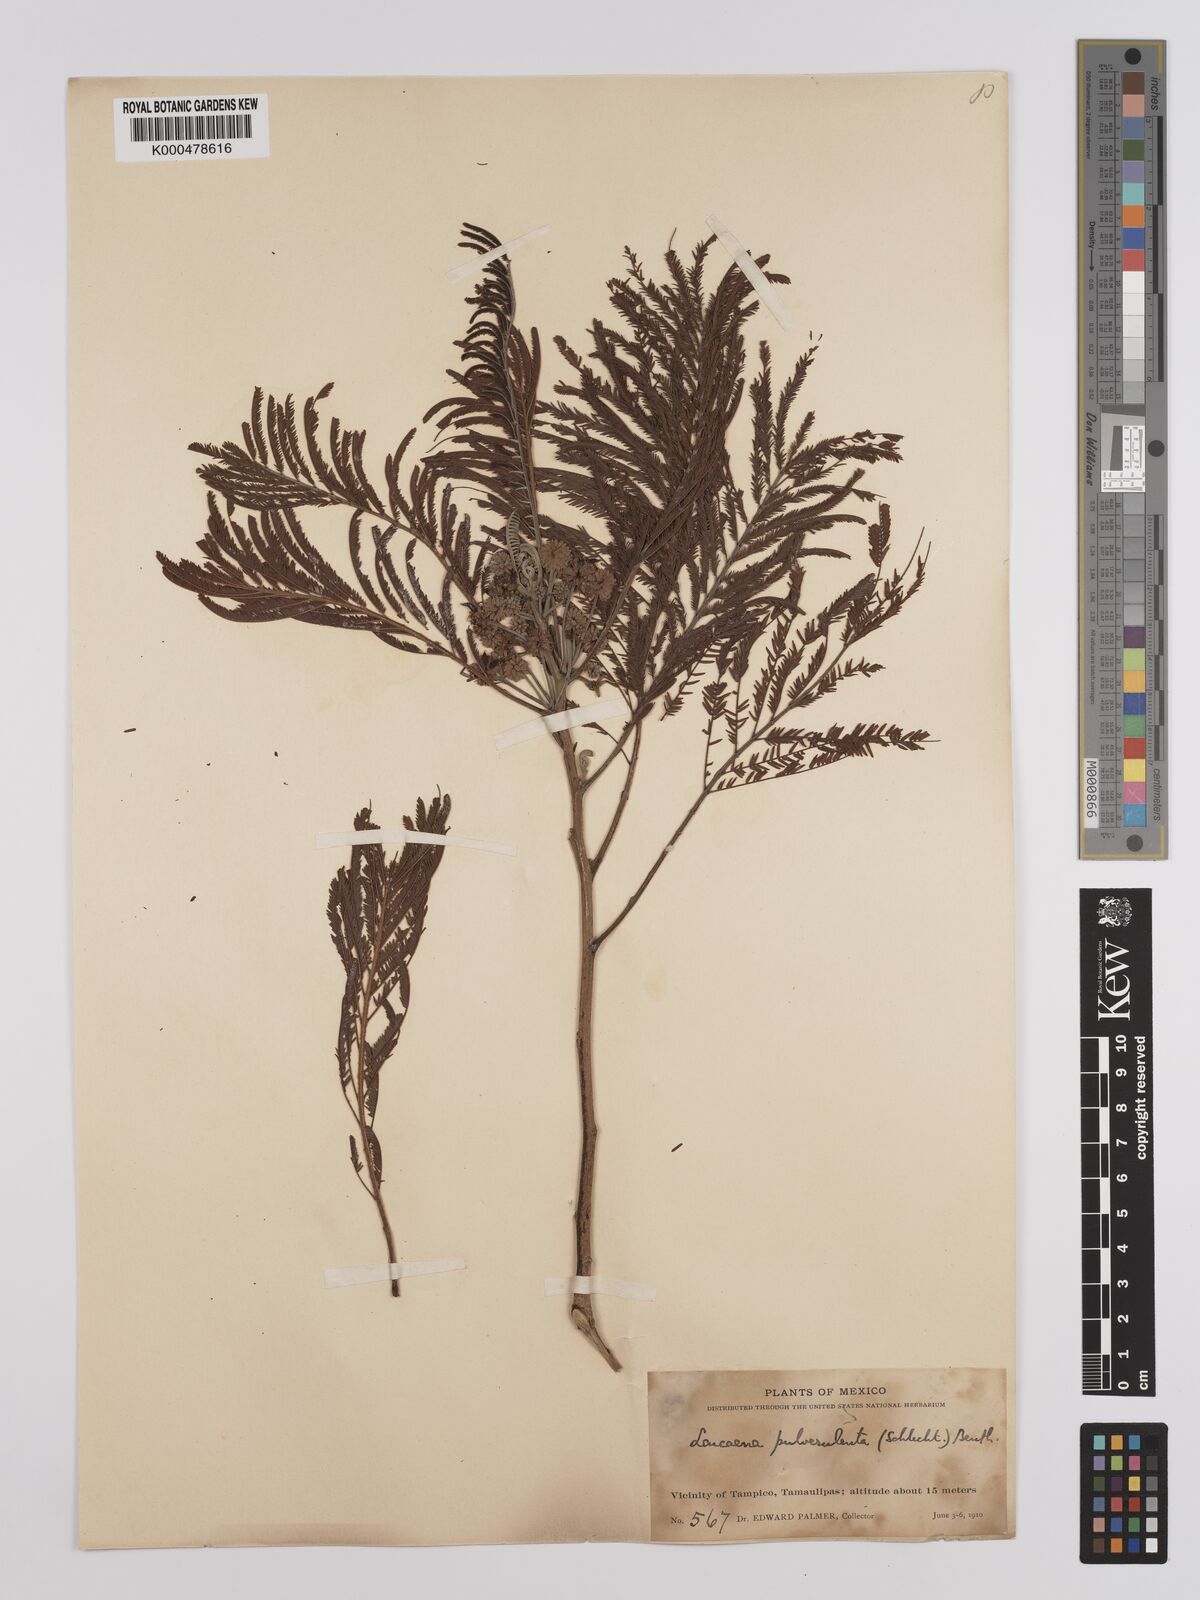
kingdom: Plantae
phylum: Tracheophyta
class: Magnoliopsida
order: Fabales
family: Fabaceae
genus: Leucaena
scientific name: Leucaena pulverulenta
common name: Great leadtree
